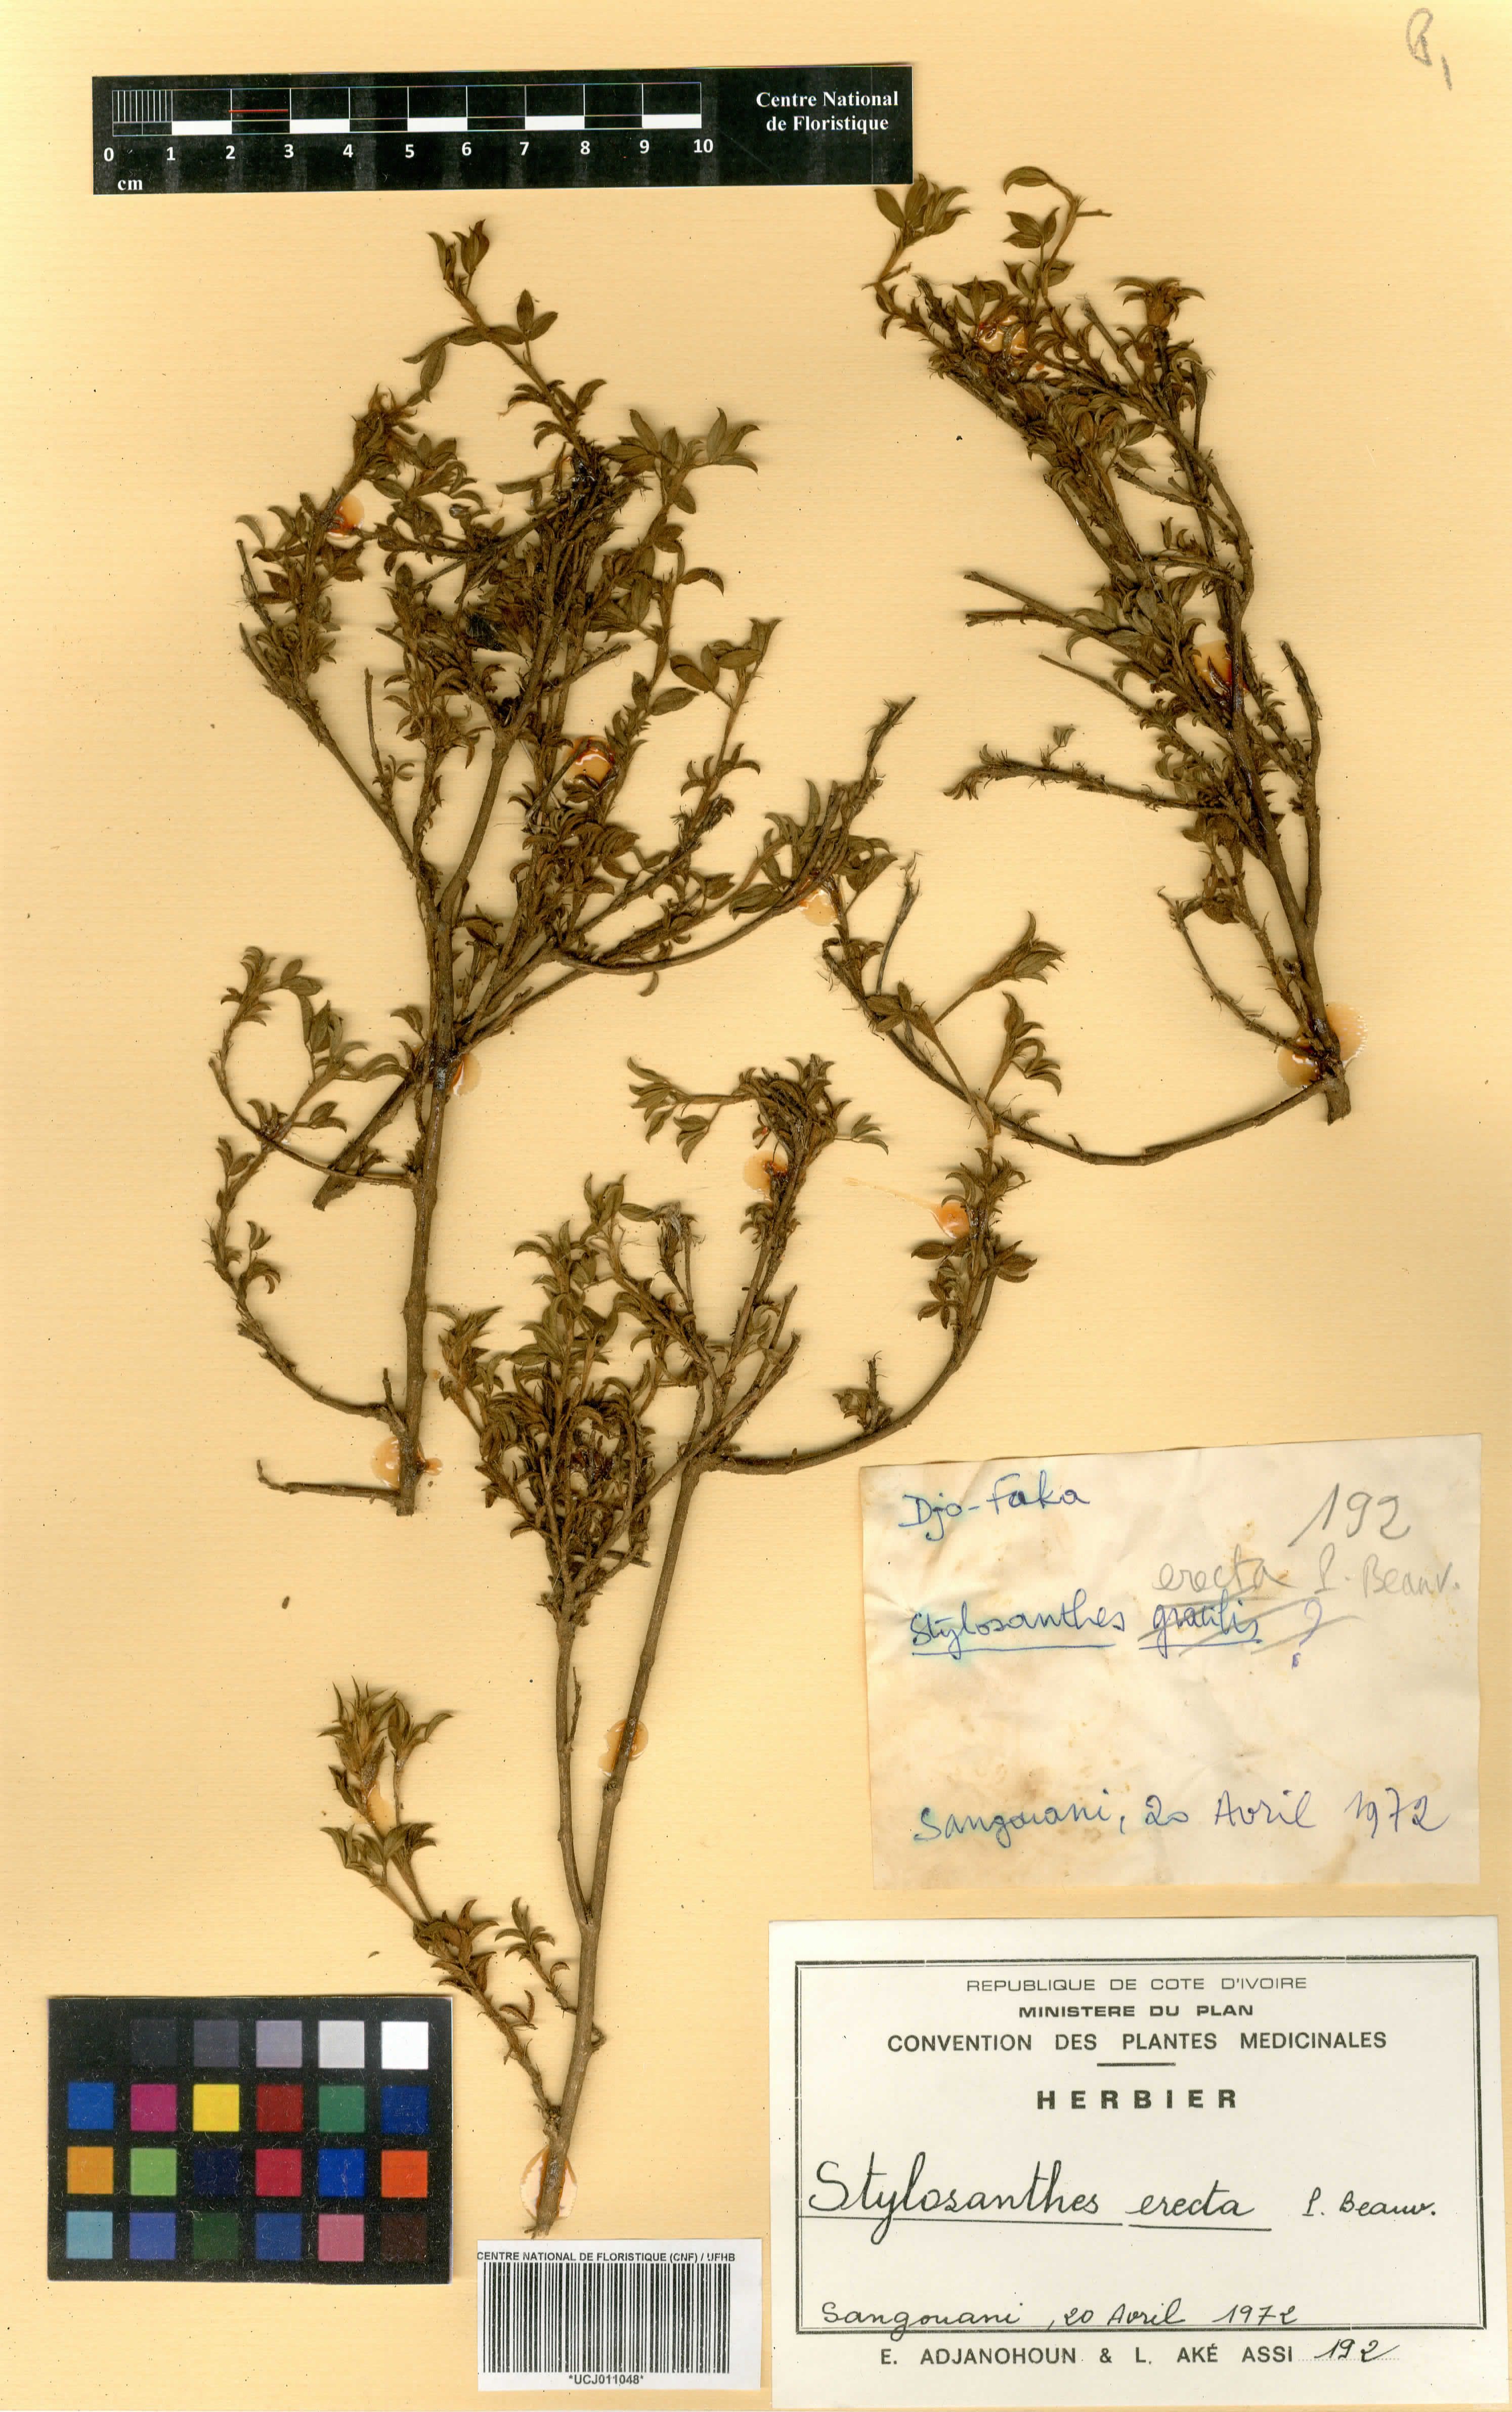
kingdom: Plantae
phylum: Tracheophyta
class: Magnoliopsida
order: Fabales
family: Fabaceae
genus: Stylosanthes
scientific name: Stylosanthes erecta
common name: Nigerian stylo
